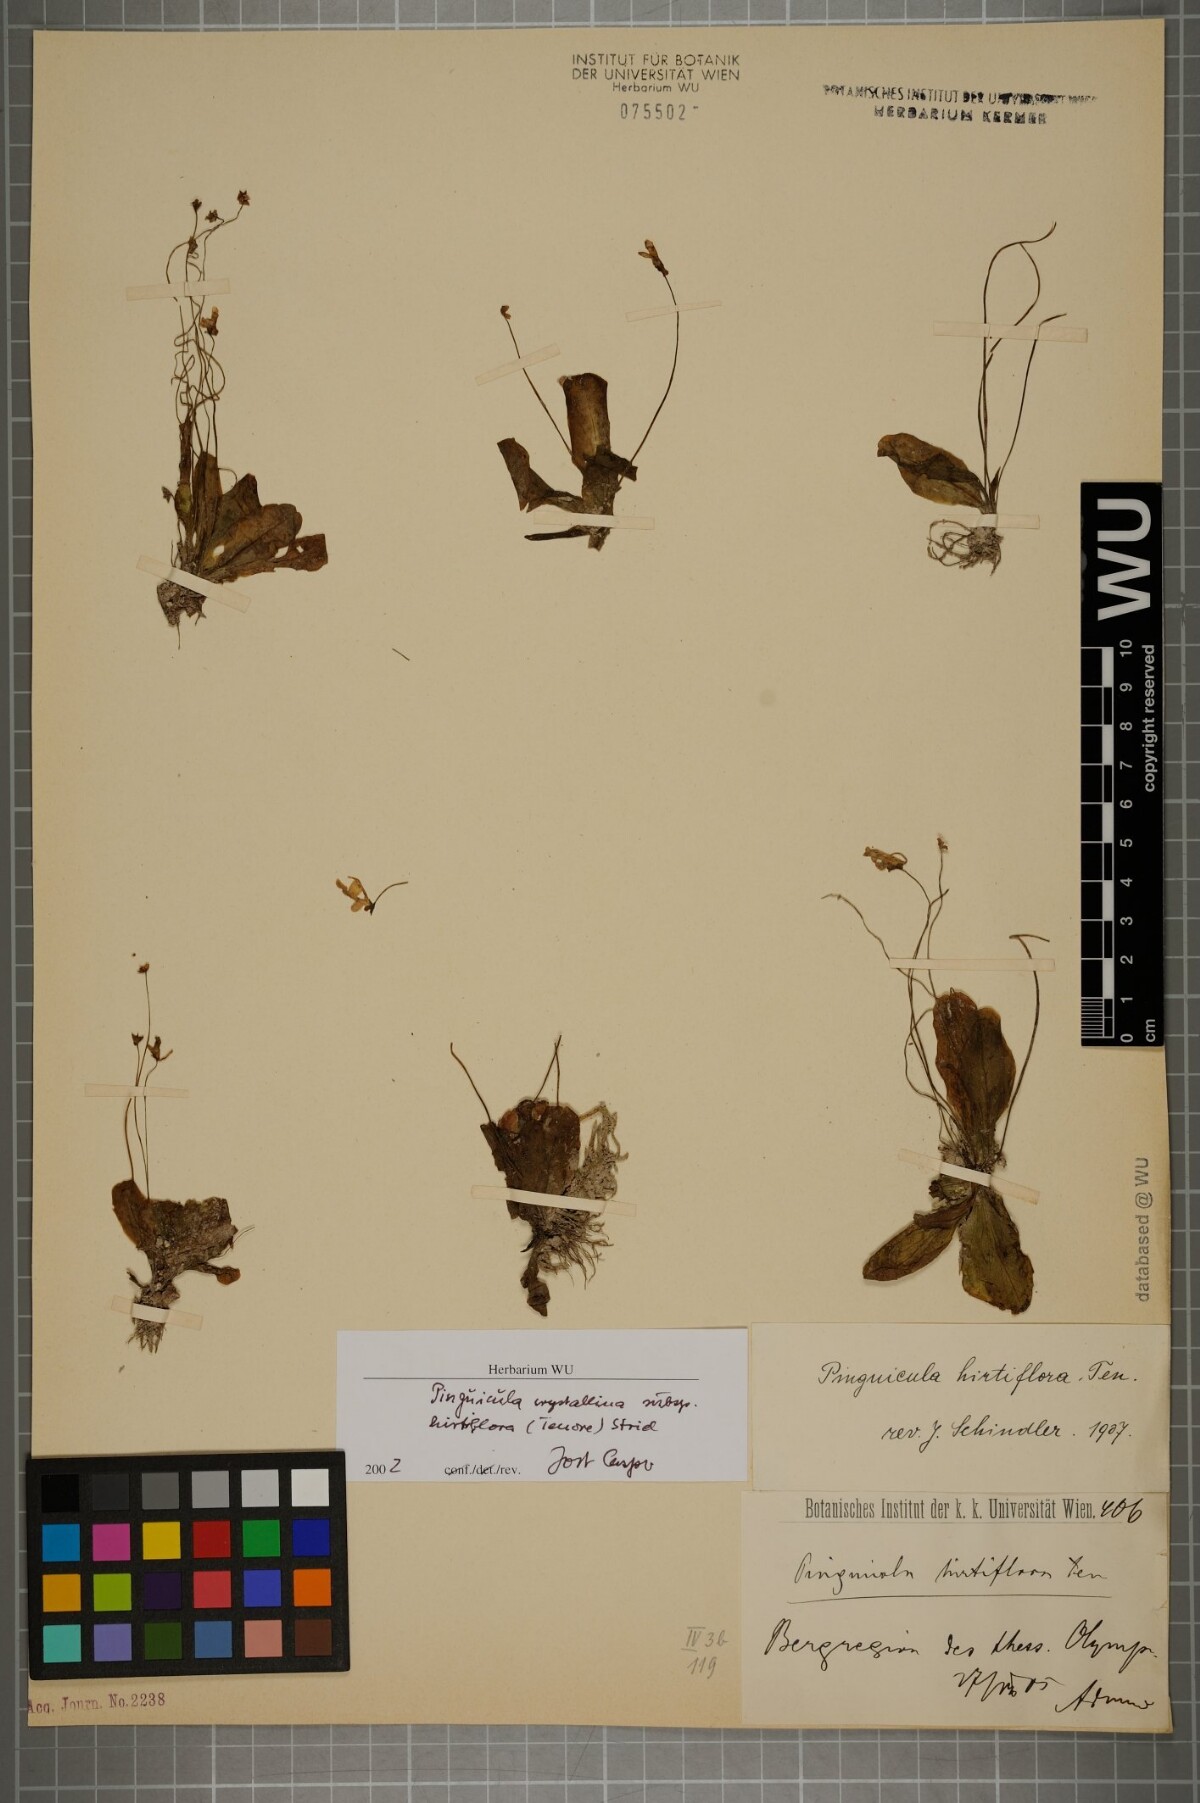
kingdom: Plantae
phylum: Tracheophyta
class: Magnoliopsida
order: Lamiales
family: Lentibulariaceae
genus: Pinguicula
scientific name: Pinguicula crystallina
